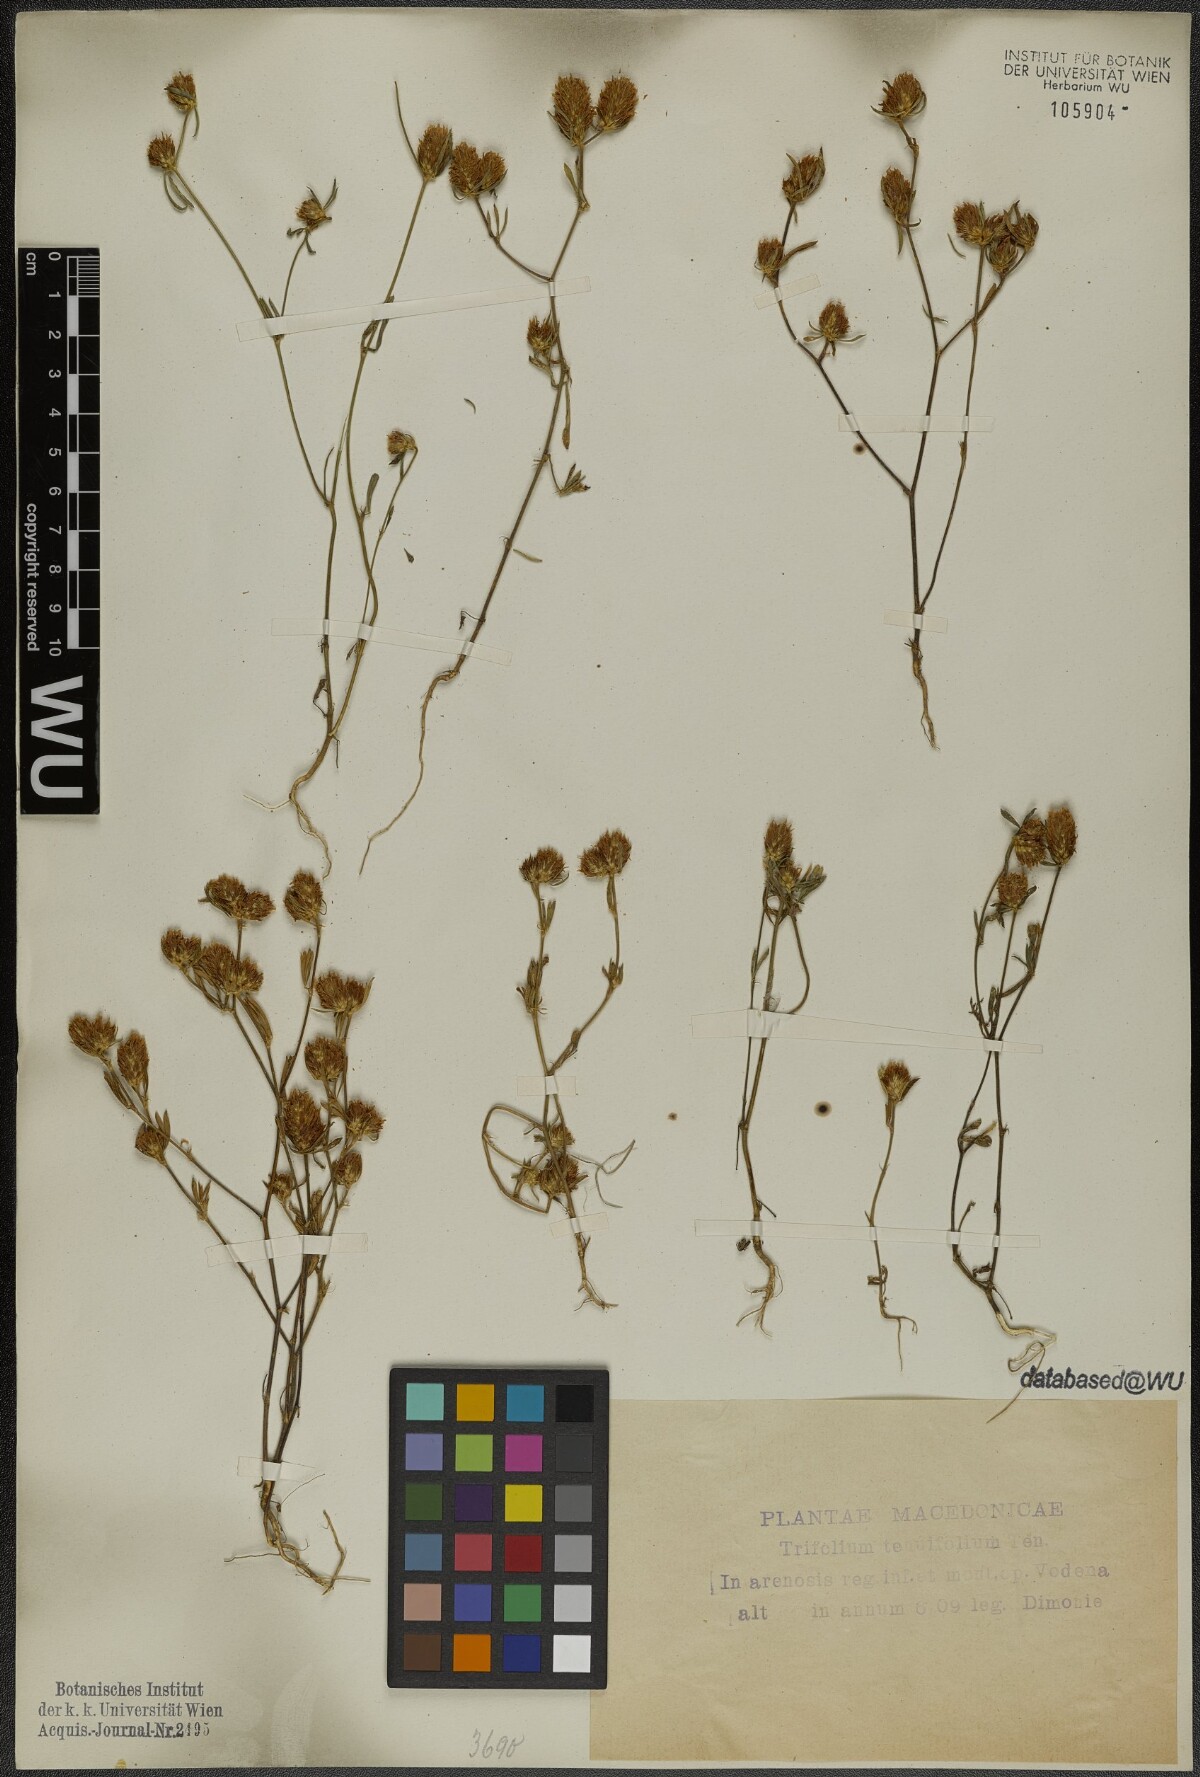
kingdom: Plantae
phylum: Tracheophyta
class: Magnoliopsida
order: Fabales
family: Fabaceae
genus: Trifolium
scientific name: Trifolium tenuifolium
